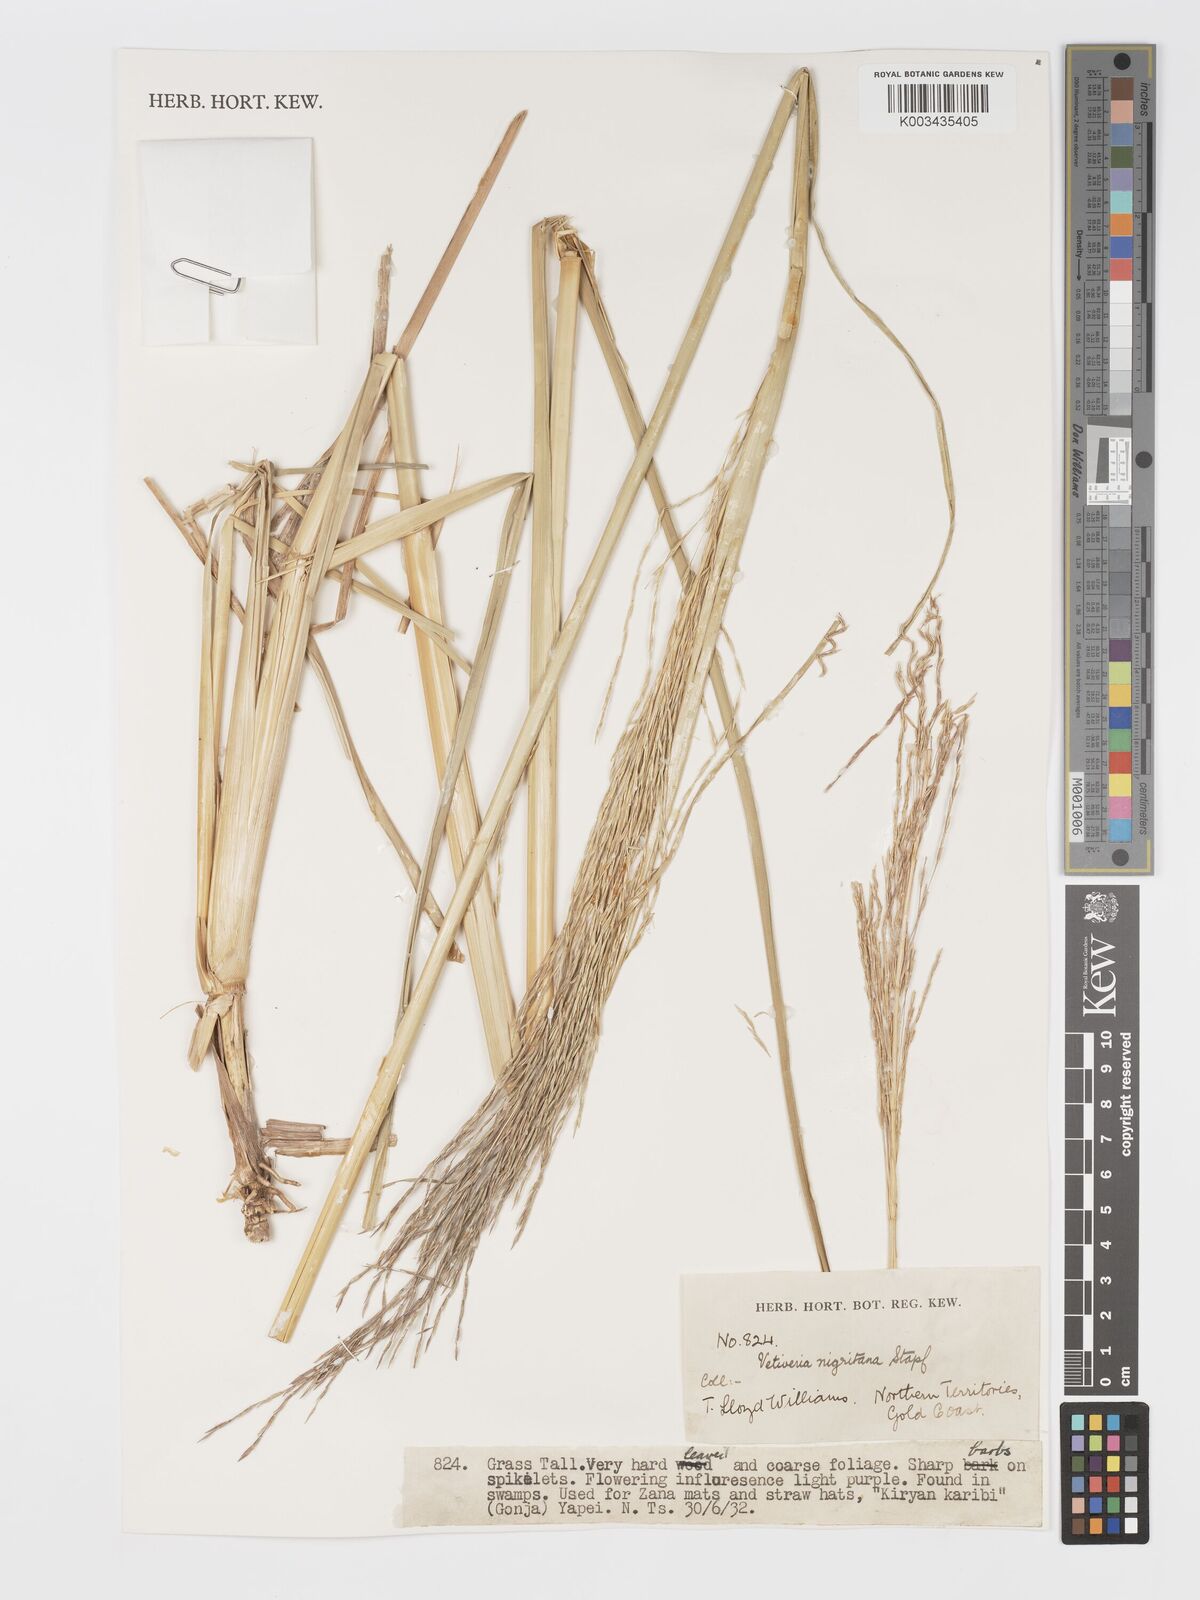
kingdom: Plantae
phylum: Tracheophyta
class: Liliopsida
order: Poales
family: Poaceae
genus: Chrysopogon
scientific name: Chrysopogon nigritanus
